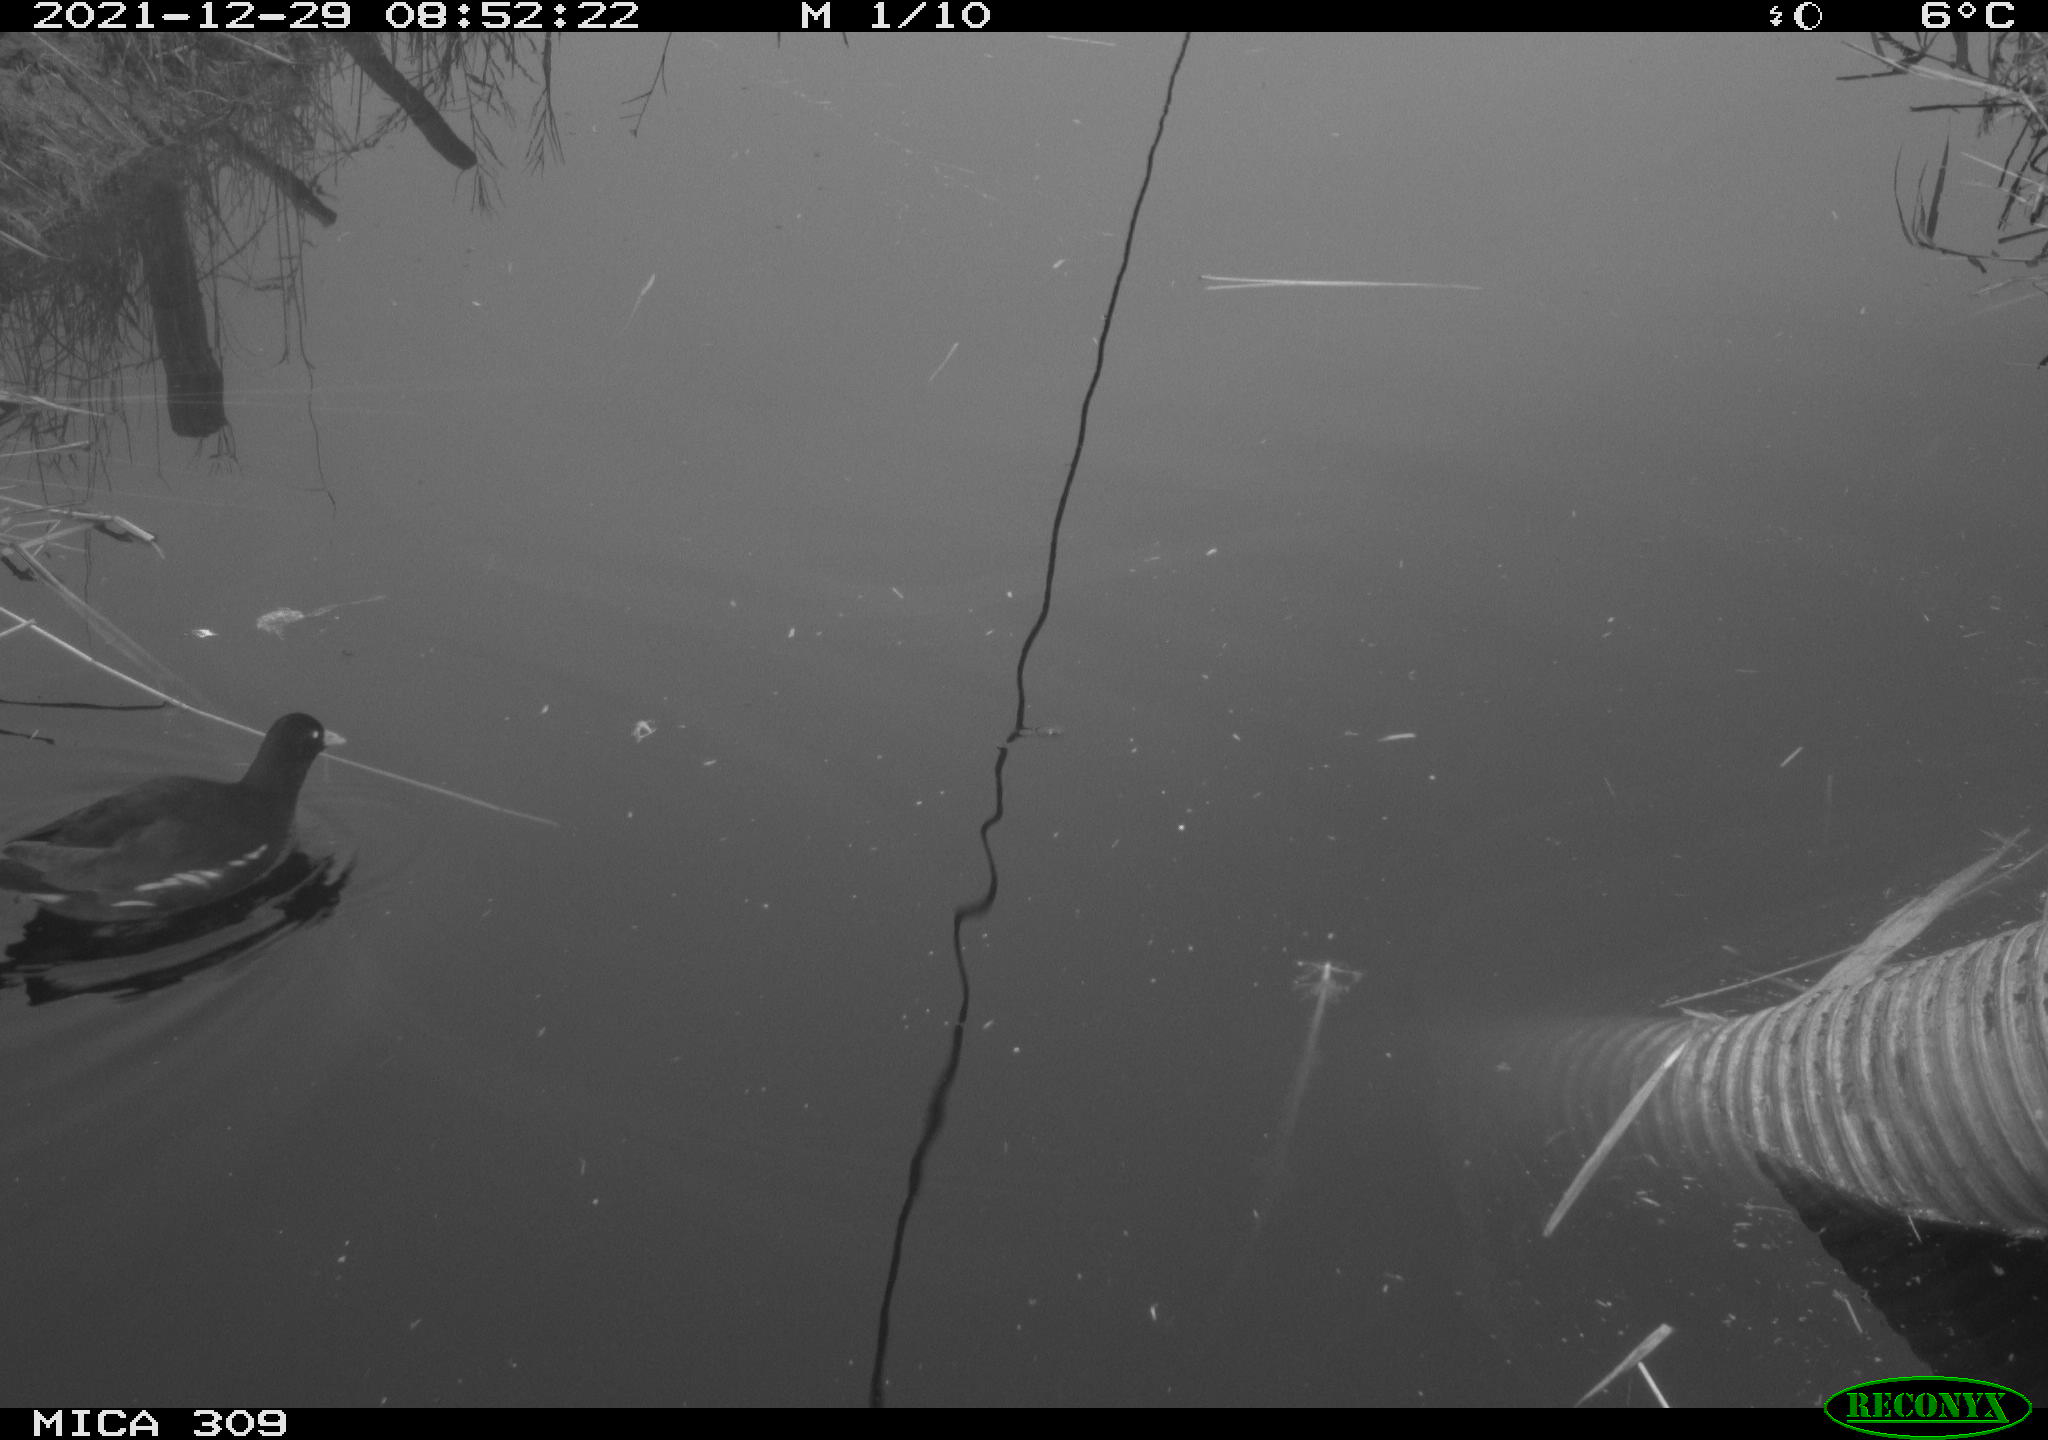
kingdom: Animalia
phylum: Chordata
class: Aves
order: Gruiformes
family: Rallidae
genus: Gallinula
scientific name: Gallinula chloropus
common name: Common moorhen
